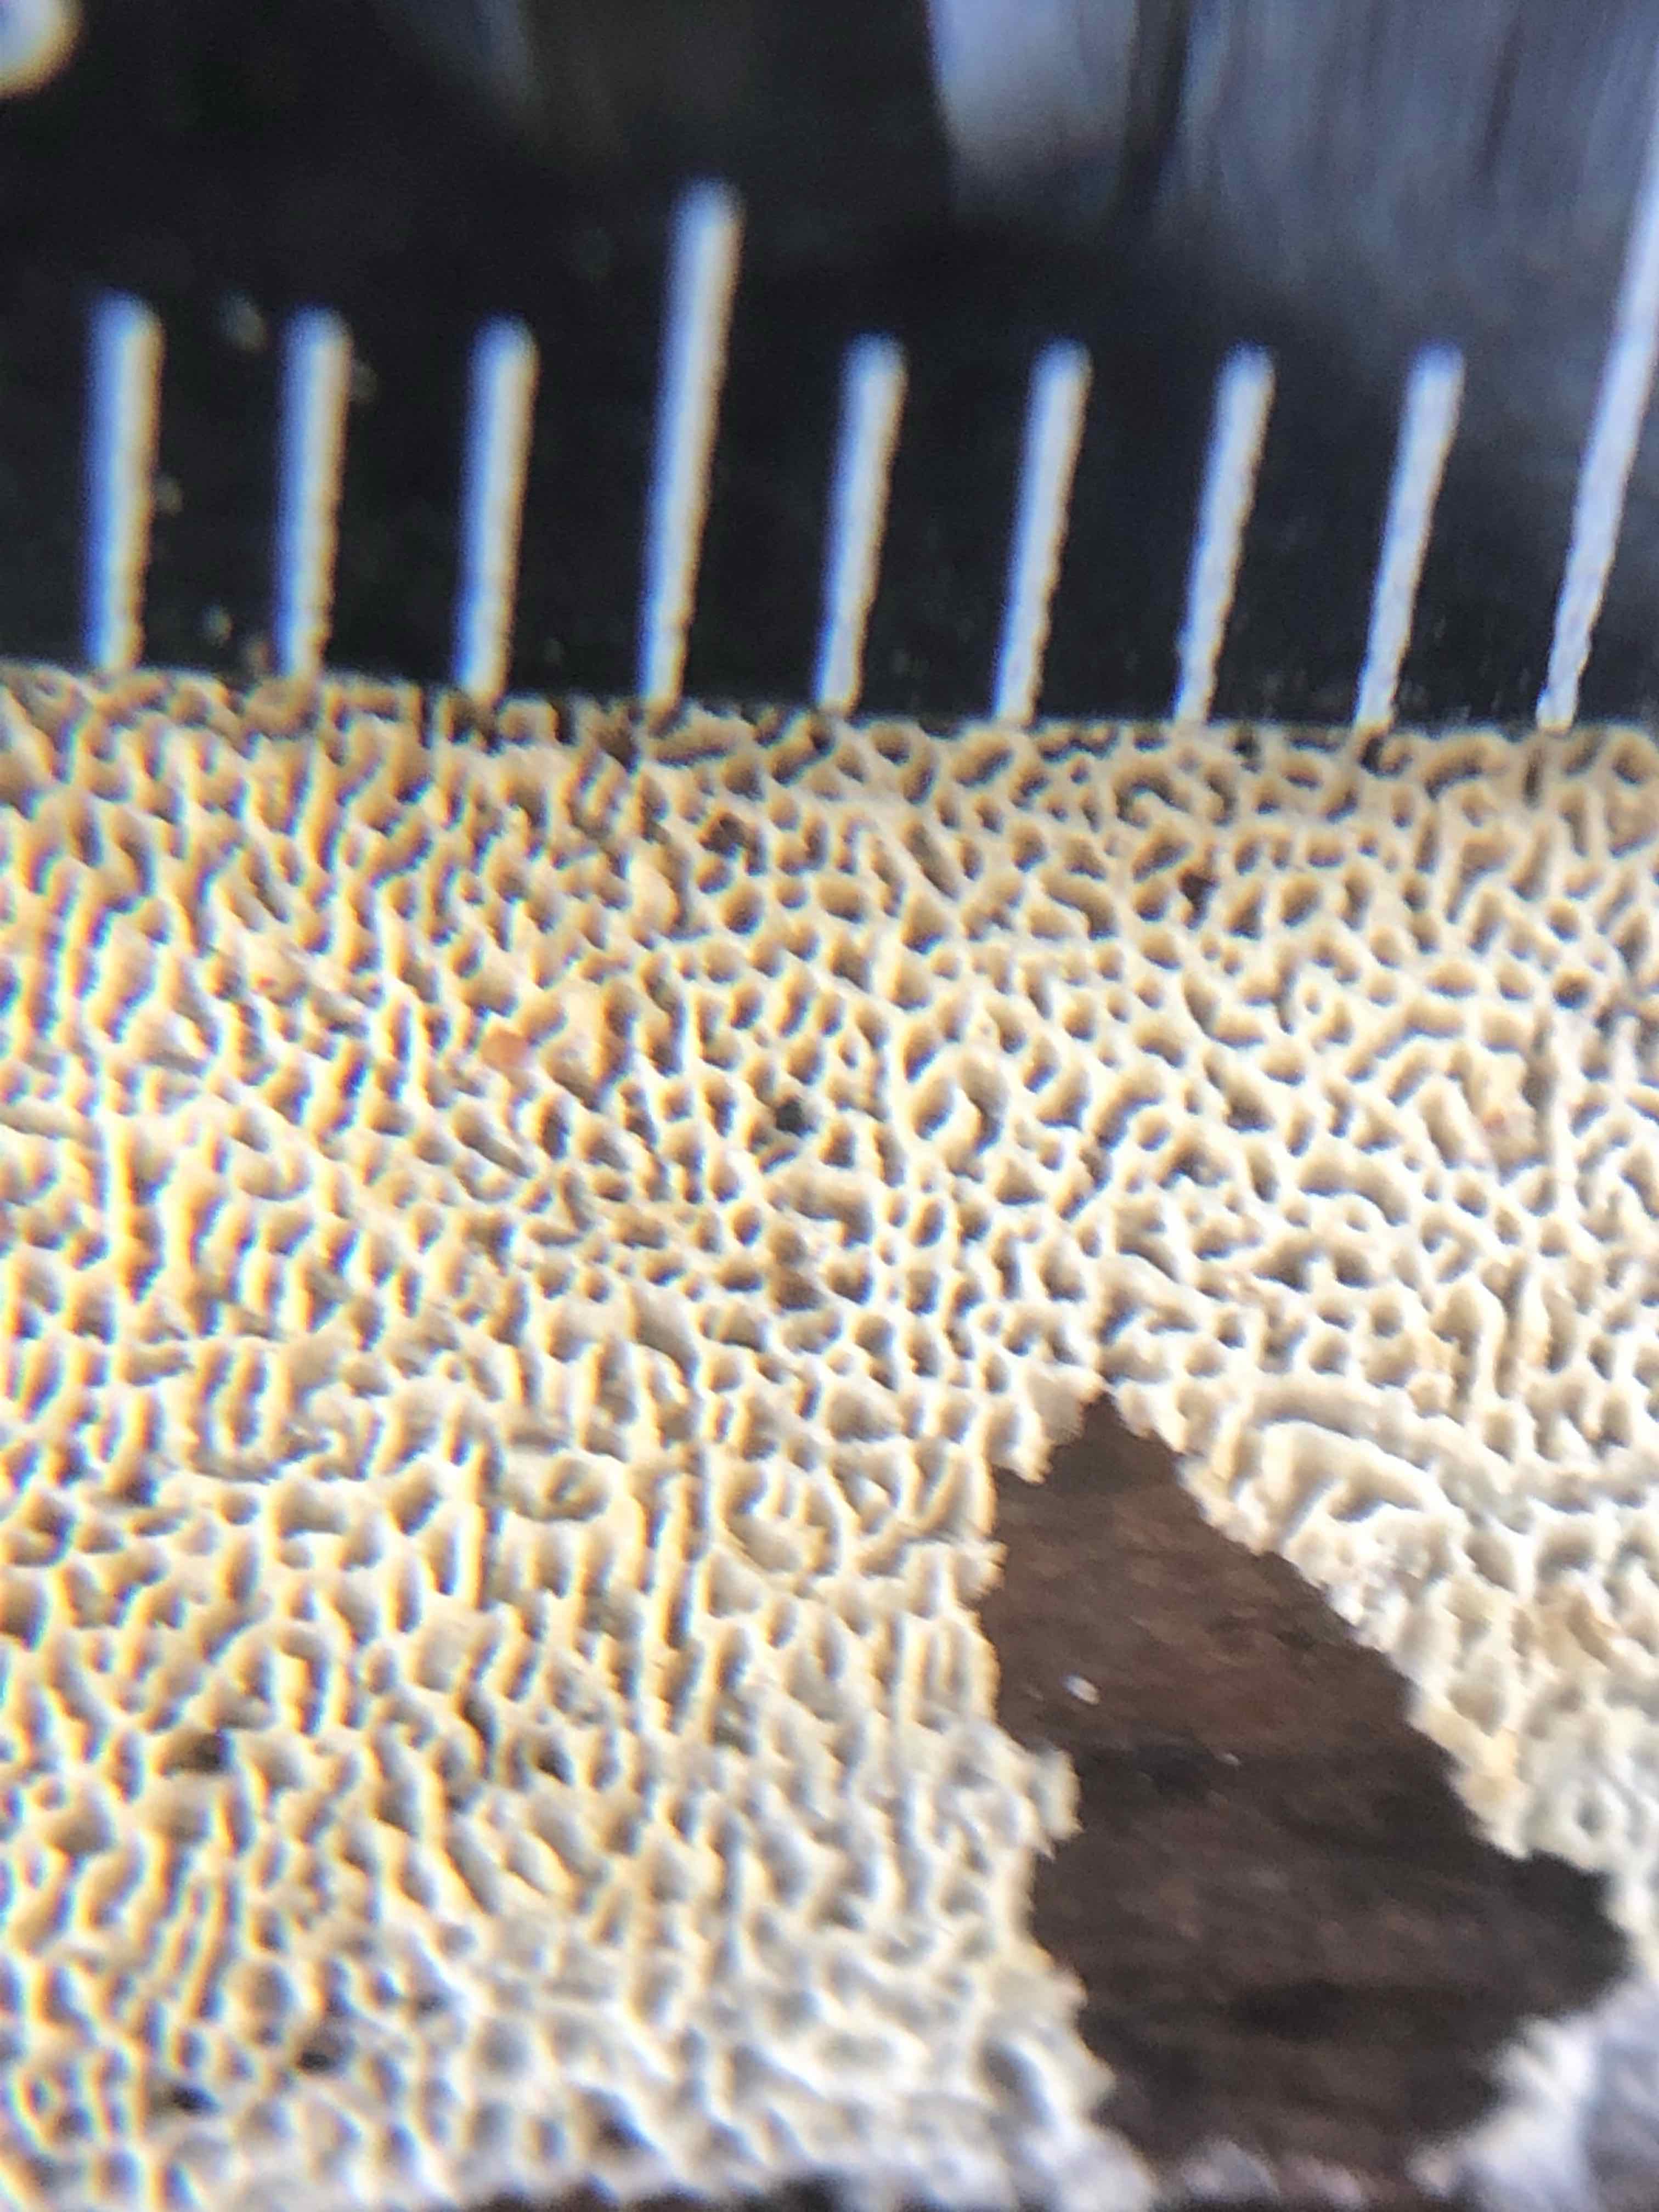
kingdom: Fungi
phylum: Basidiomycota
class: Agaricomycetes
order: Hymenochaetales
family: Schizoporaceae
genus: Xylodon
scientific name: Xylodon subtropicus
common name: labyrint-tandsvamp
